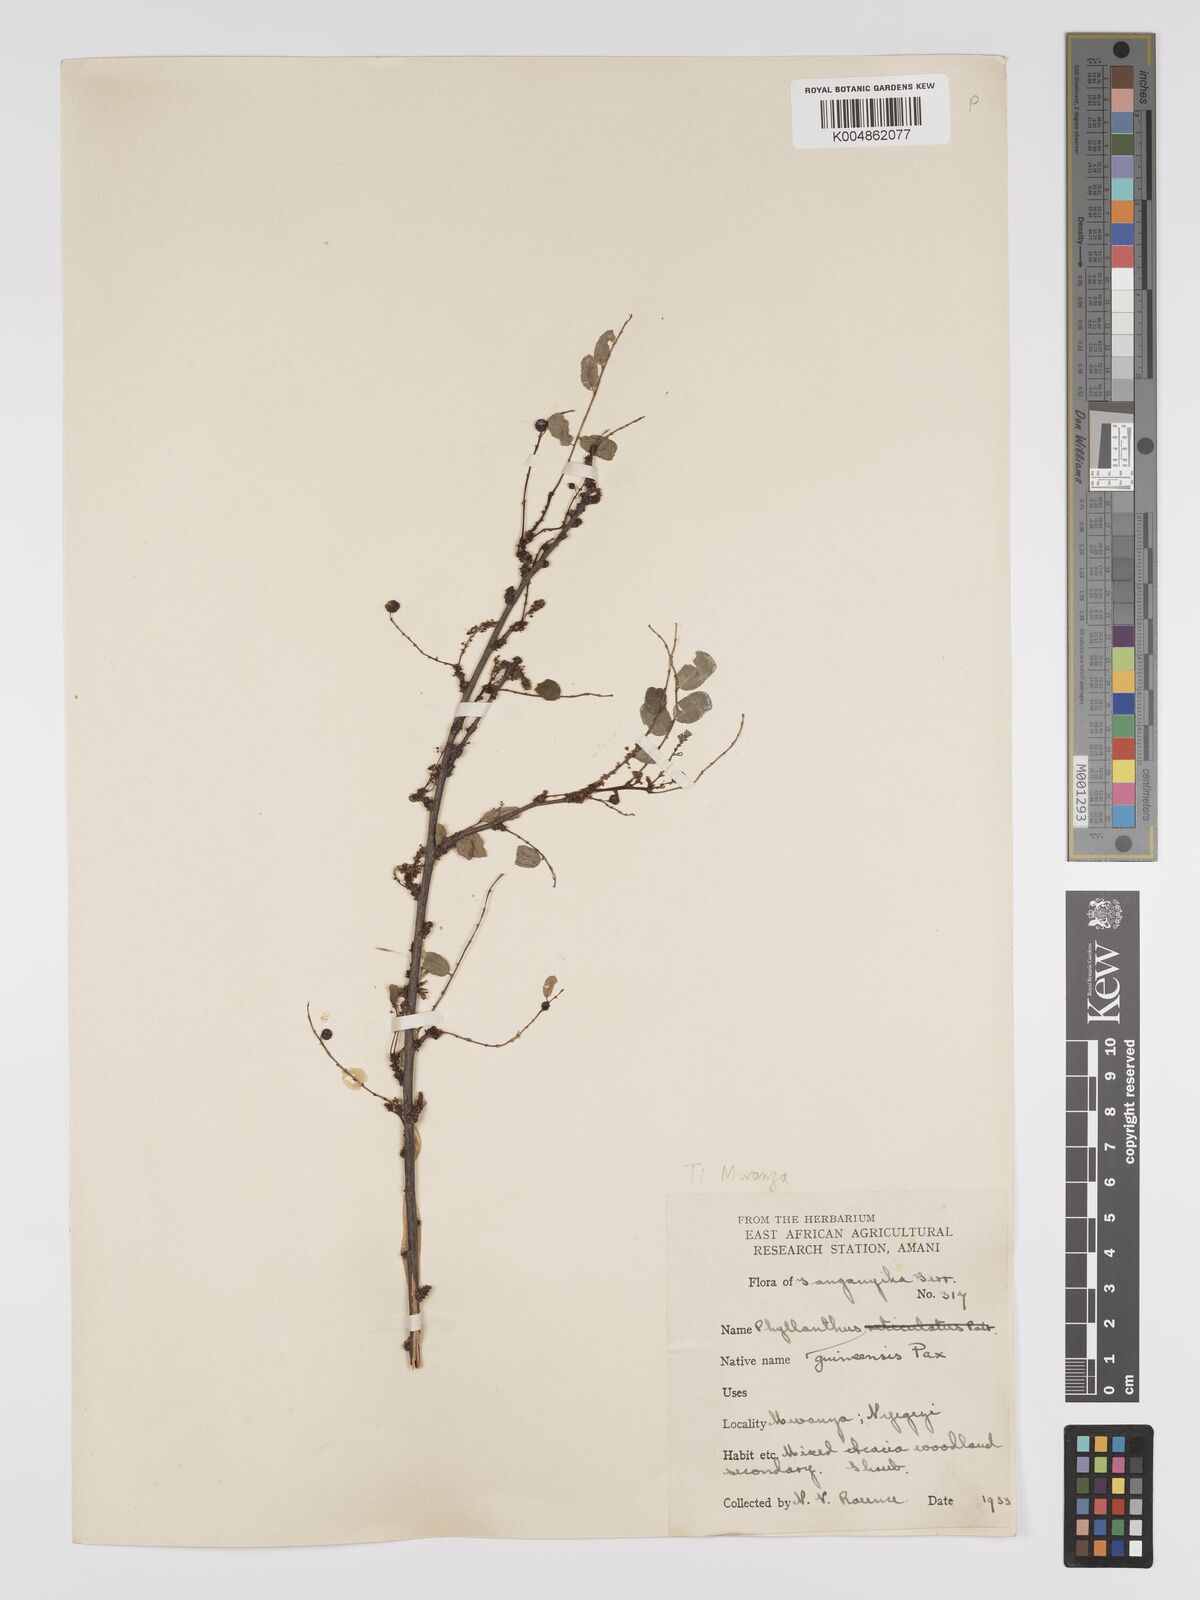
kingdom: Plantae
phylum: Tracheophyta
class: Magnoliopsida
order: Malpighiales
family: Phyllanthaceae
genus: Phyllanthus
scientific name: Phyllanthus ovalifolius
